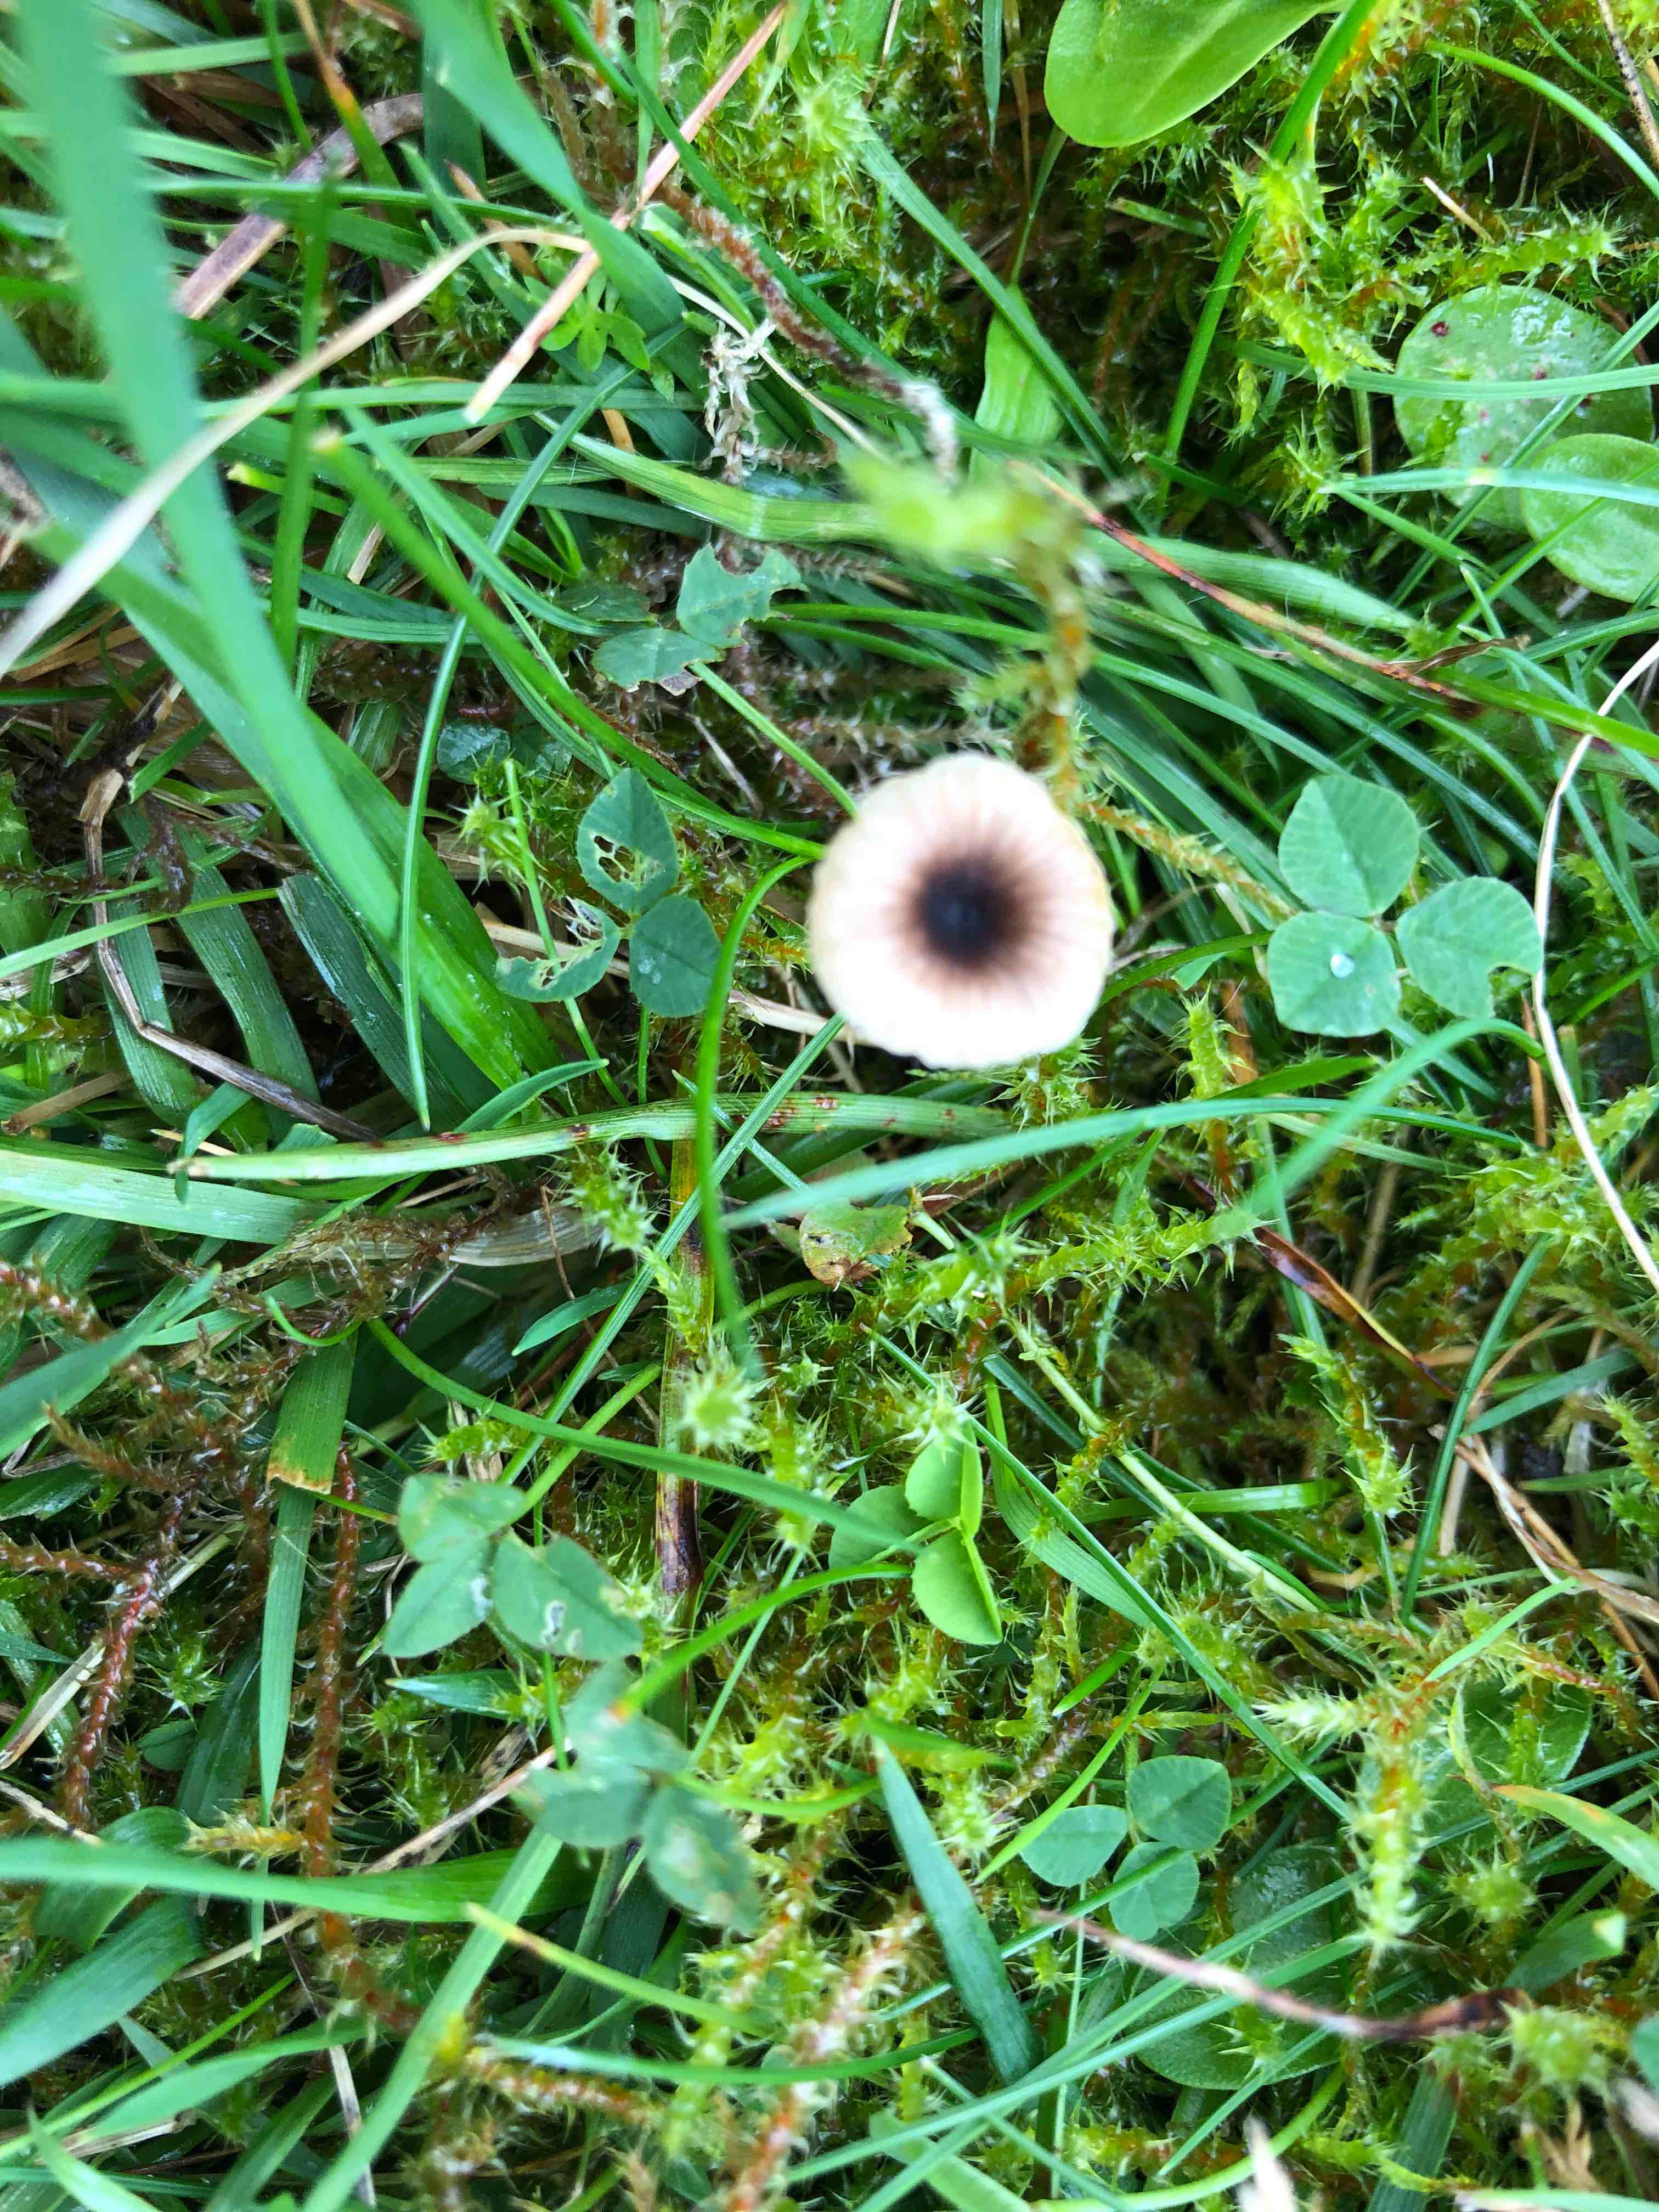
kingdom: Fungi
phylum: Basidiomycota
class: Agaricomycetes
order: Hymenochaetales
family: Rickenellaceae
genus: Rickenella
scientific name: Rickenella swartzii
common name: finstokket mosnavlehat
